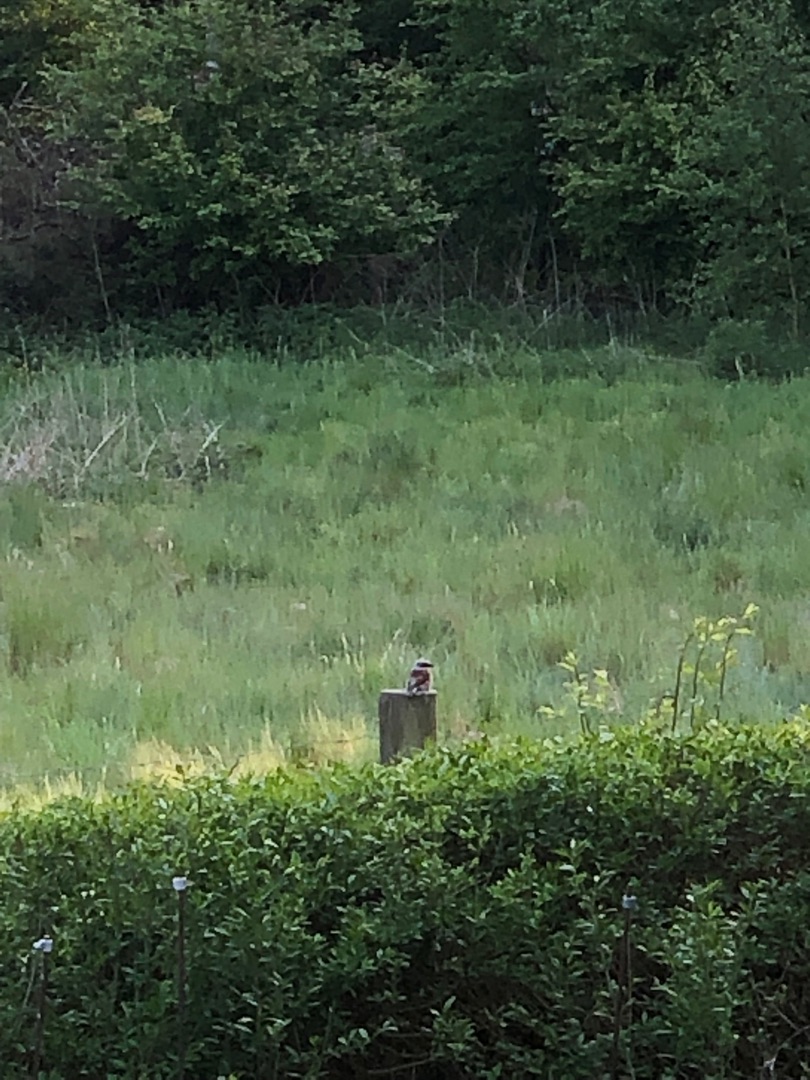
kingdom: Animalia
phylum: Chordata
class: Aves
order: Passeriformes
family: Laniidae
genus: Lanius
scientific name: Lanius collurio
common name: Rødrygget tornskade
